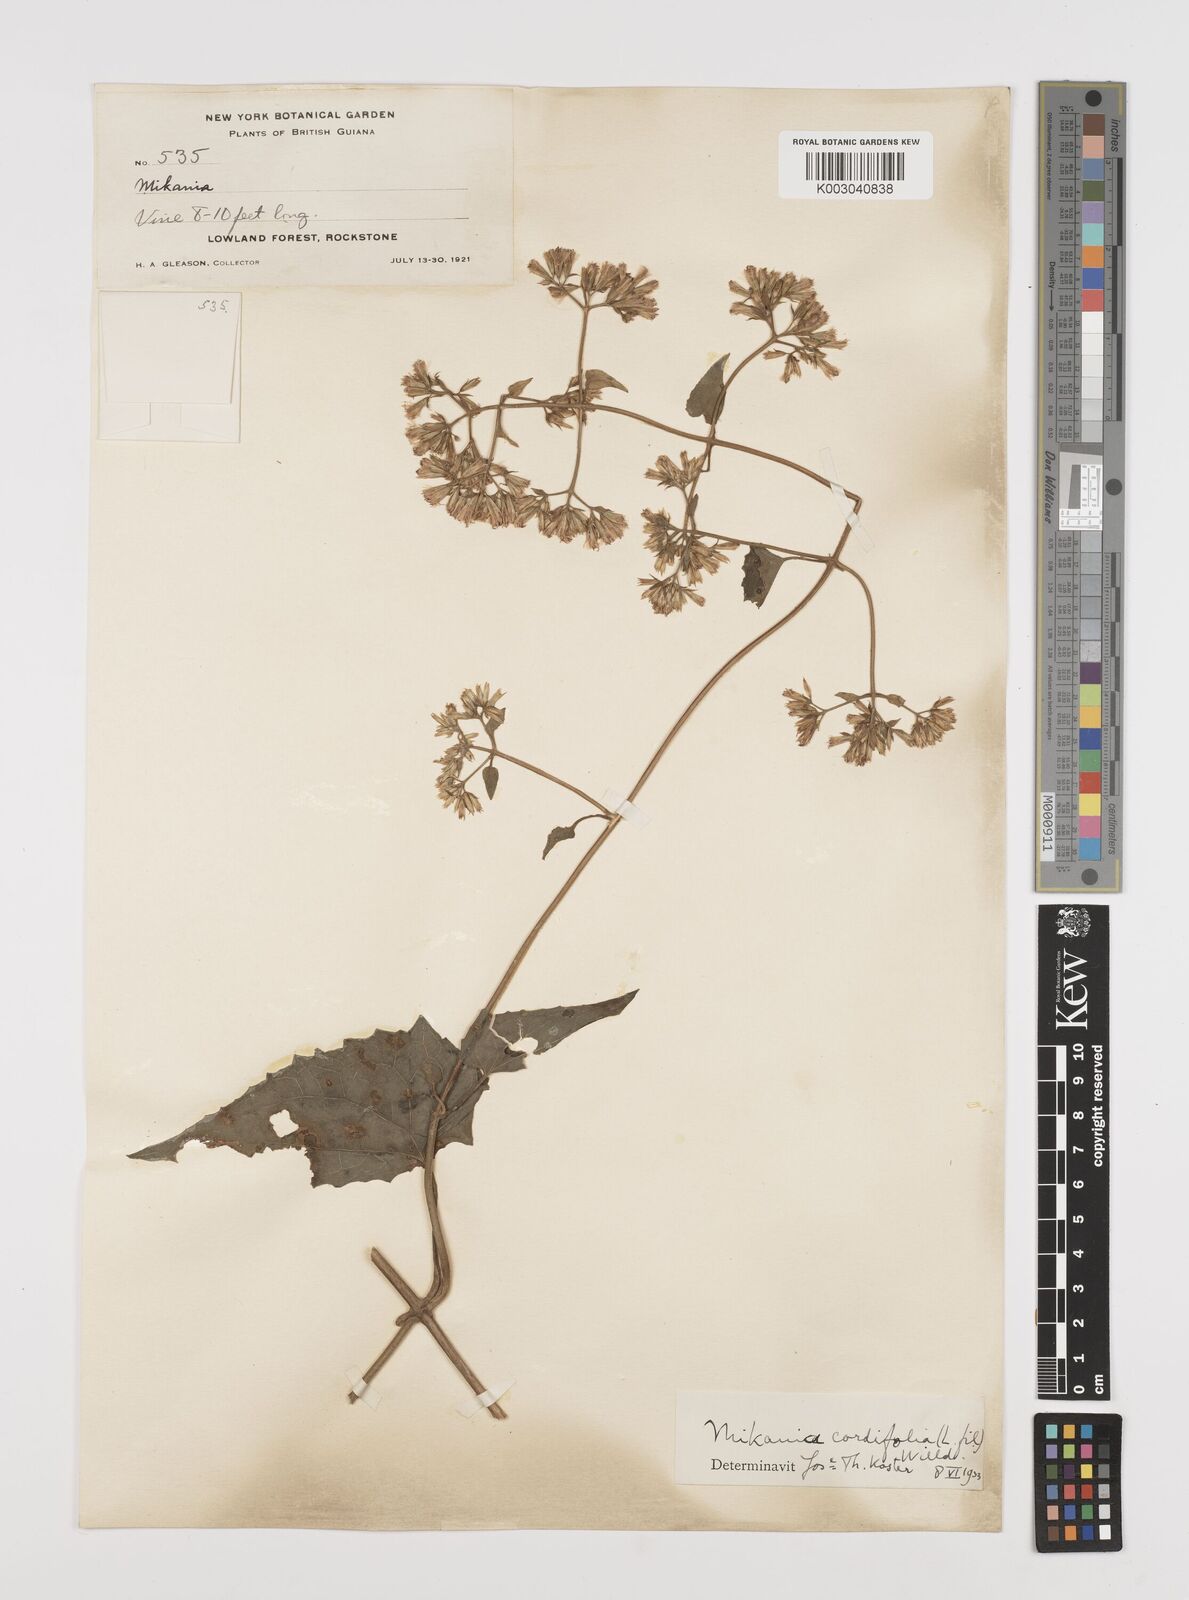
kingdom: Plantae
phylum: Tracheophyta
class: Magnoliopsida
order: Asterales
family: Asteraceae
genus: Mikania
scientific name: Mikania cordifolia
